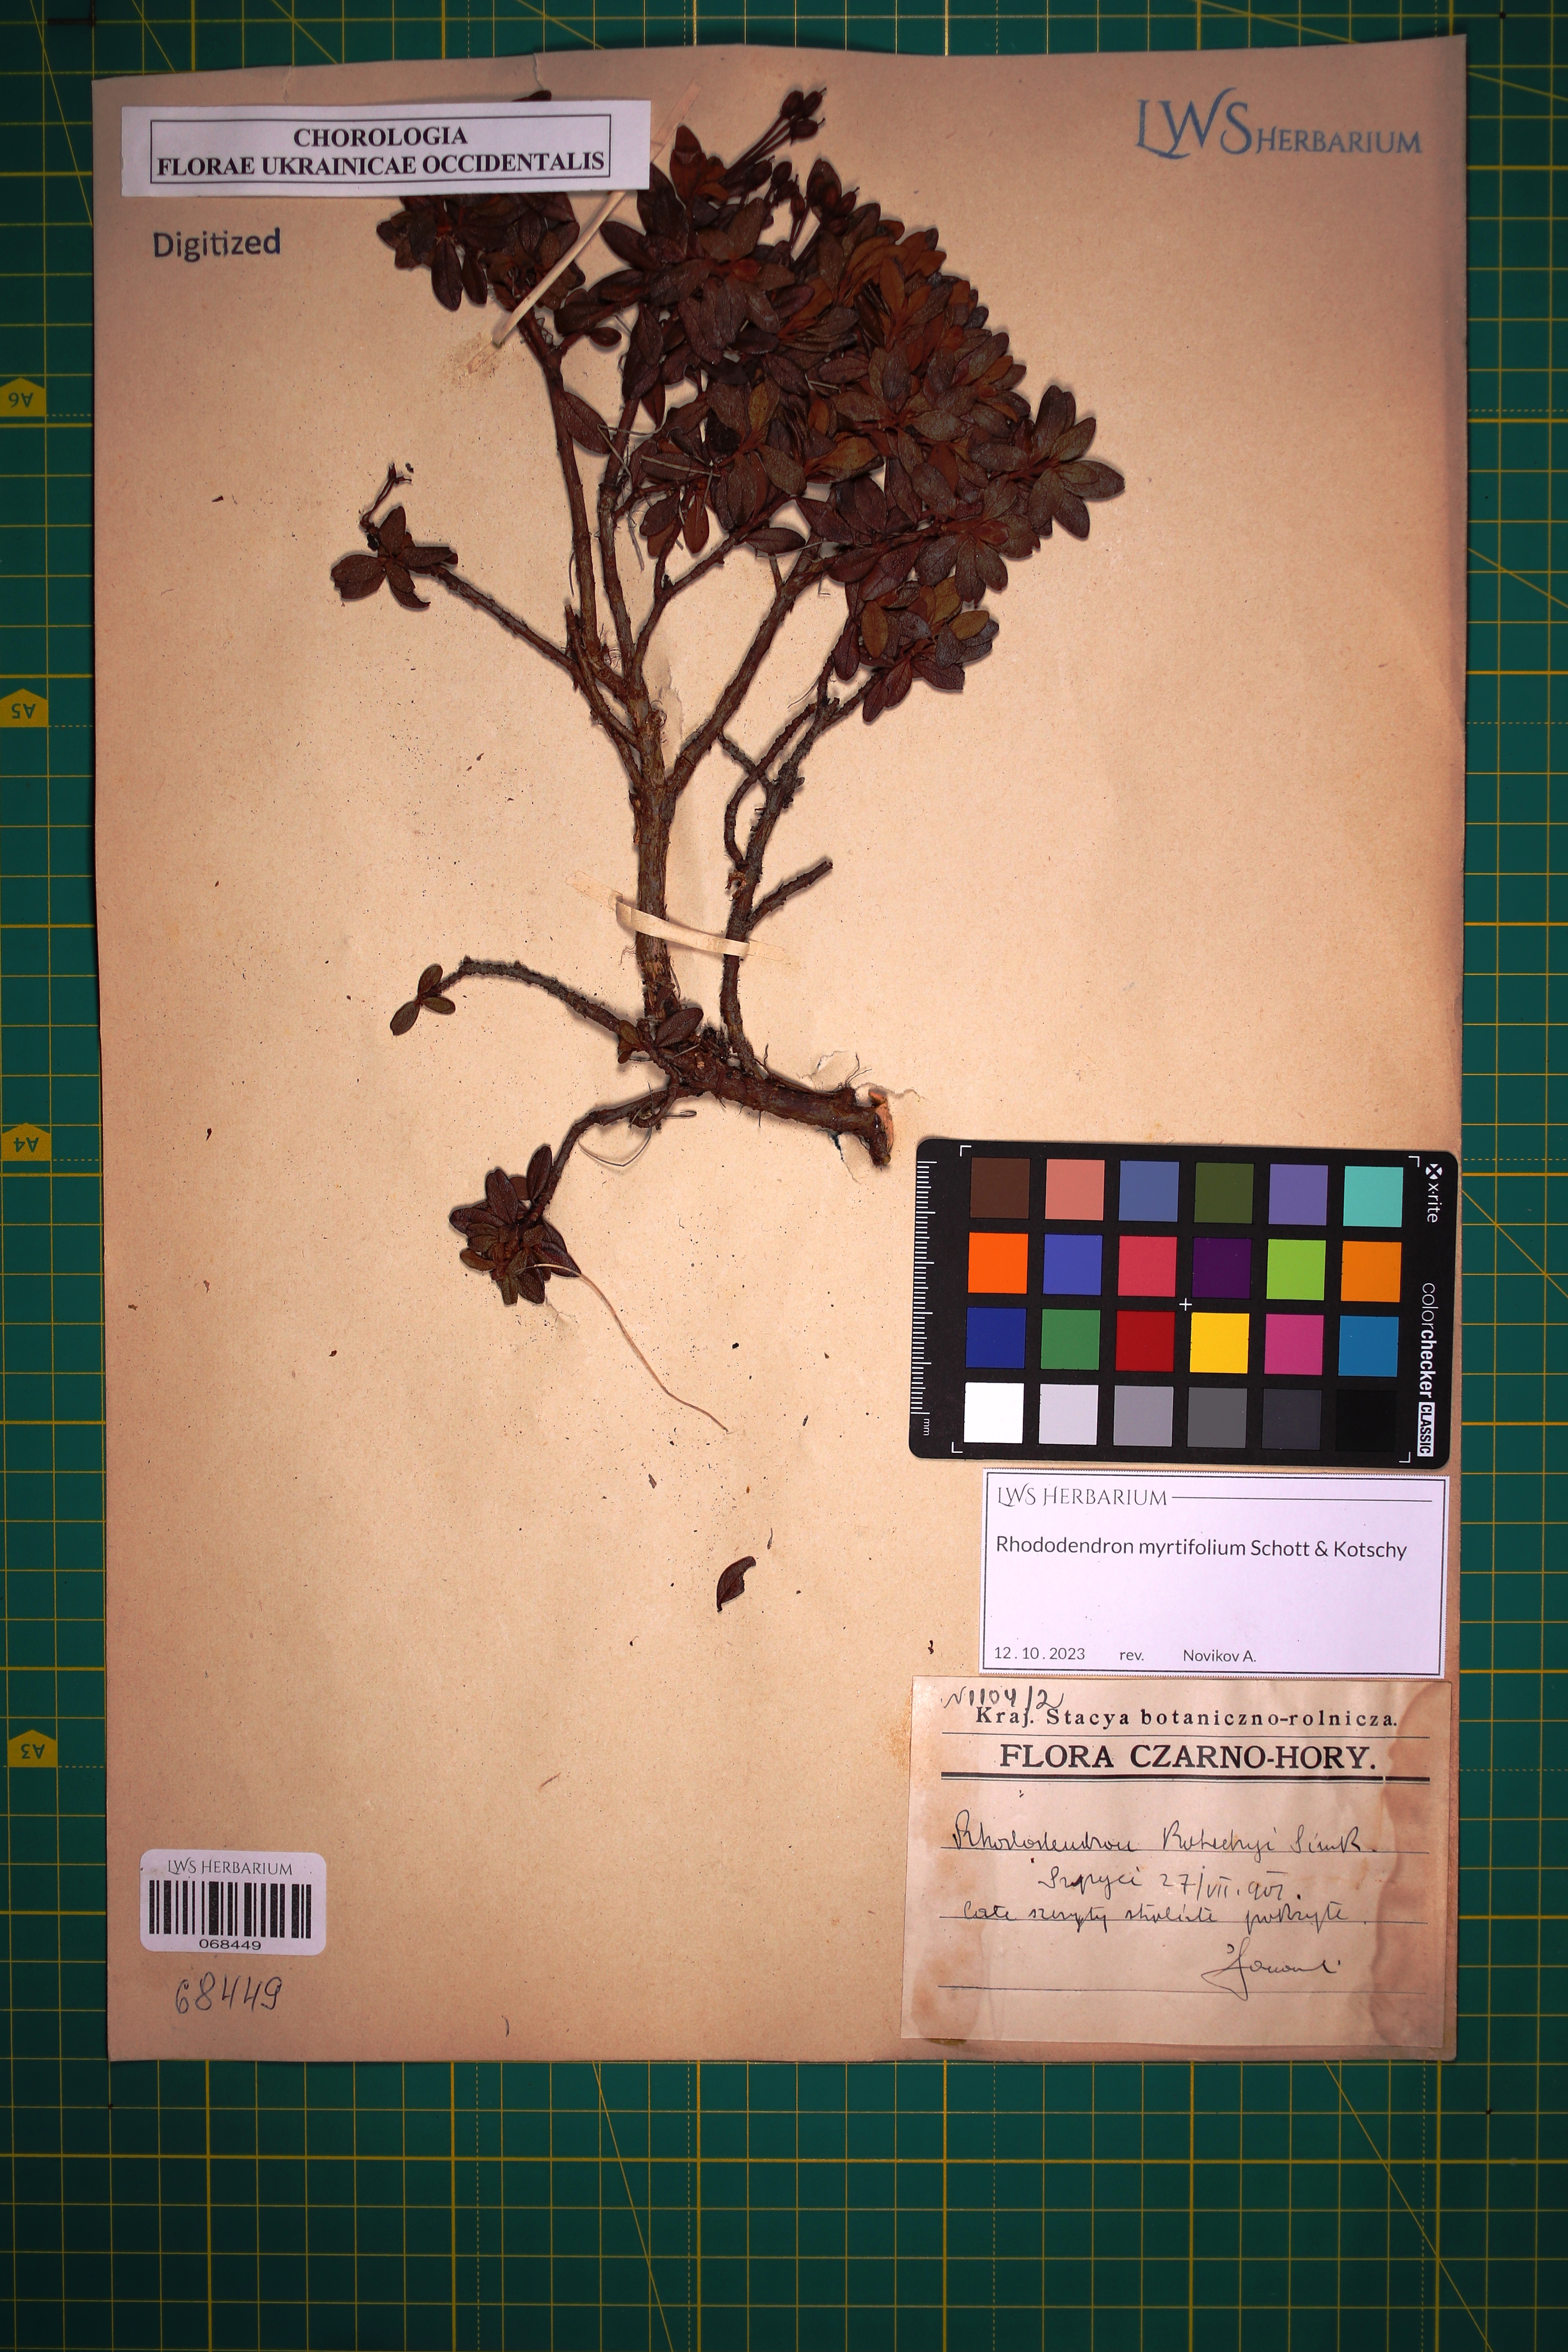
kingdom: Plantae
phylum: Tracheophyta
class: Magnoliopsida
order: Ericales
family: Ericaceae
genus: Rhododendron
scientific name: Rhododendron kotschyi
